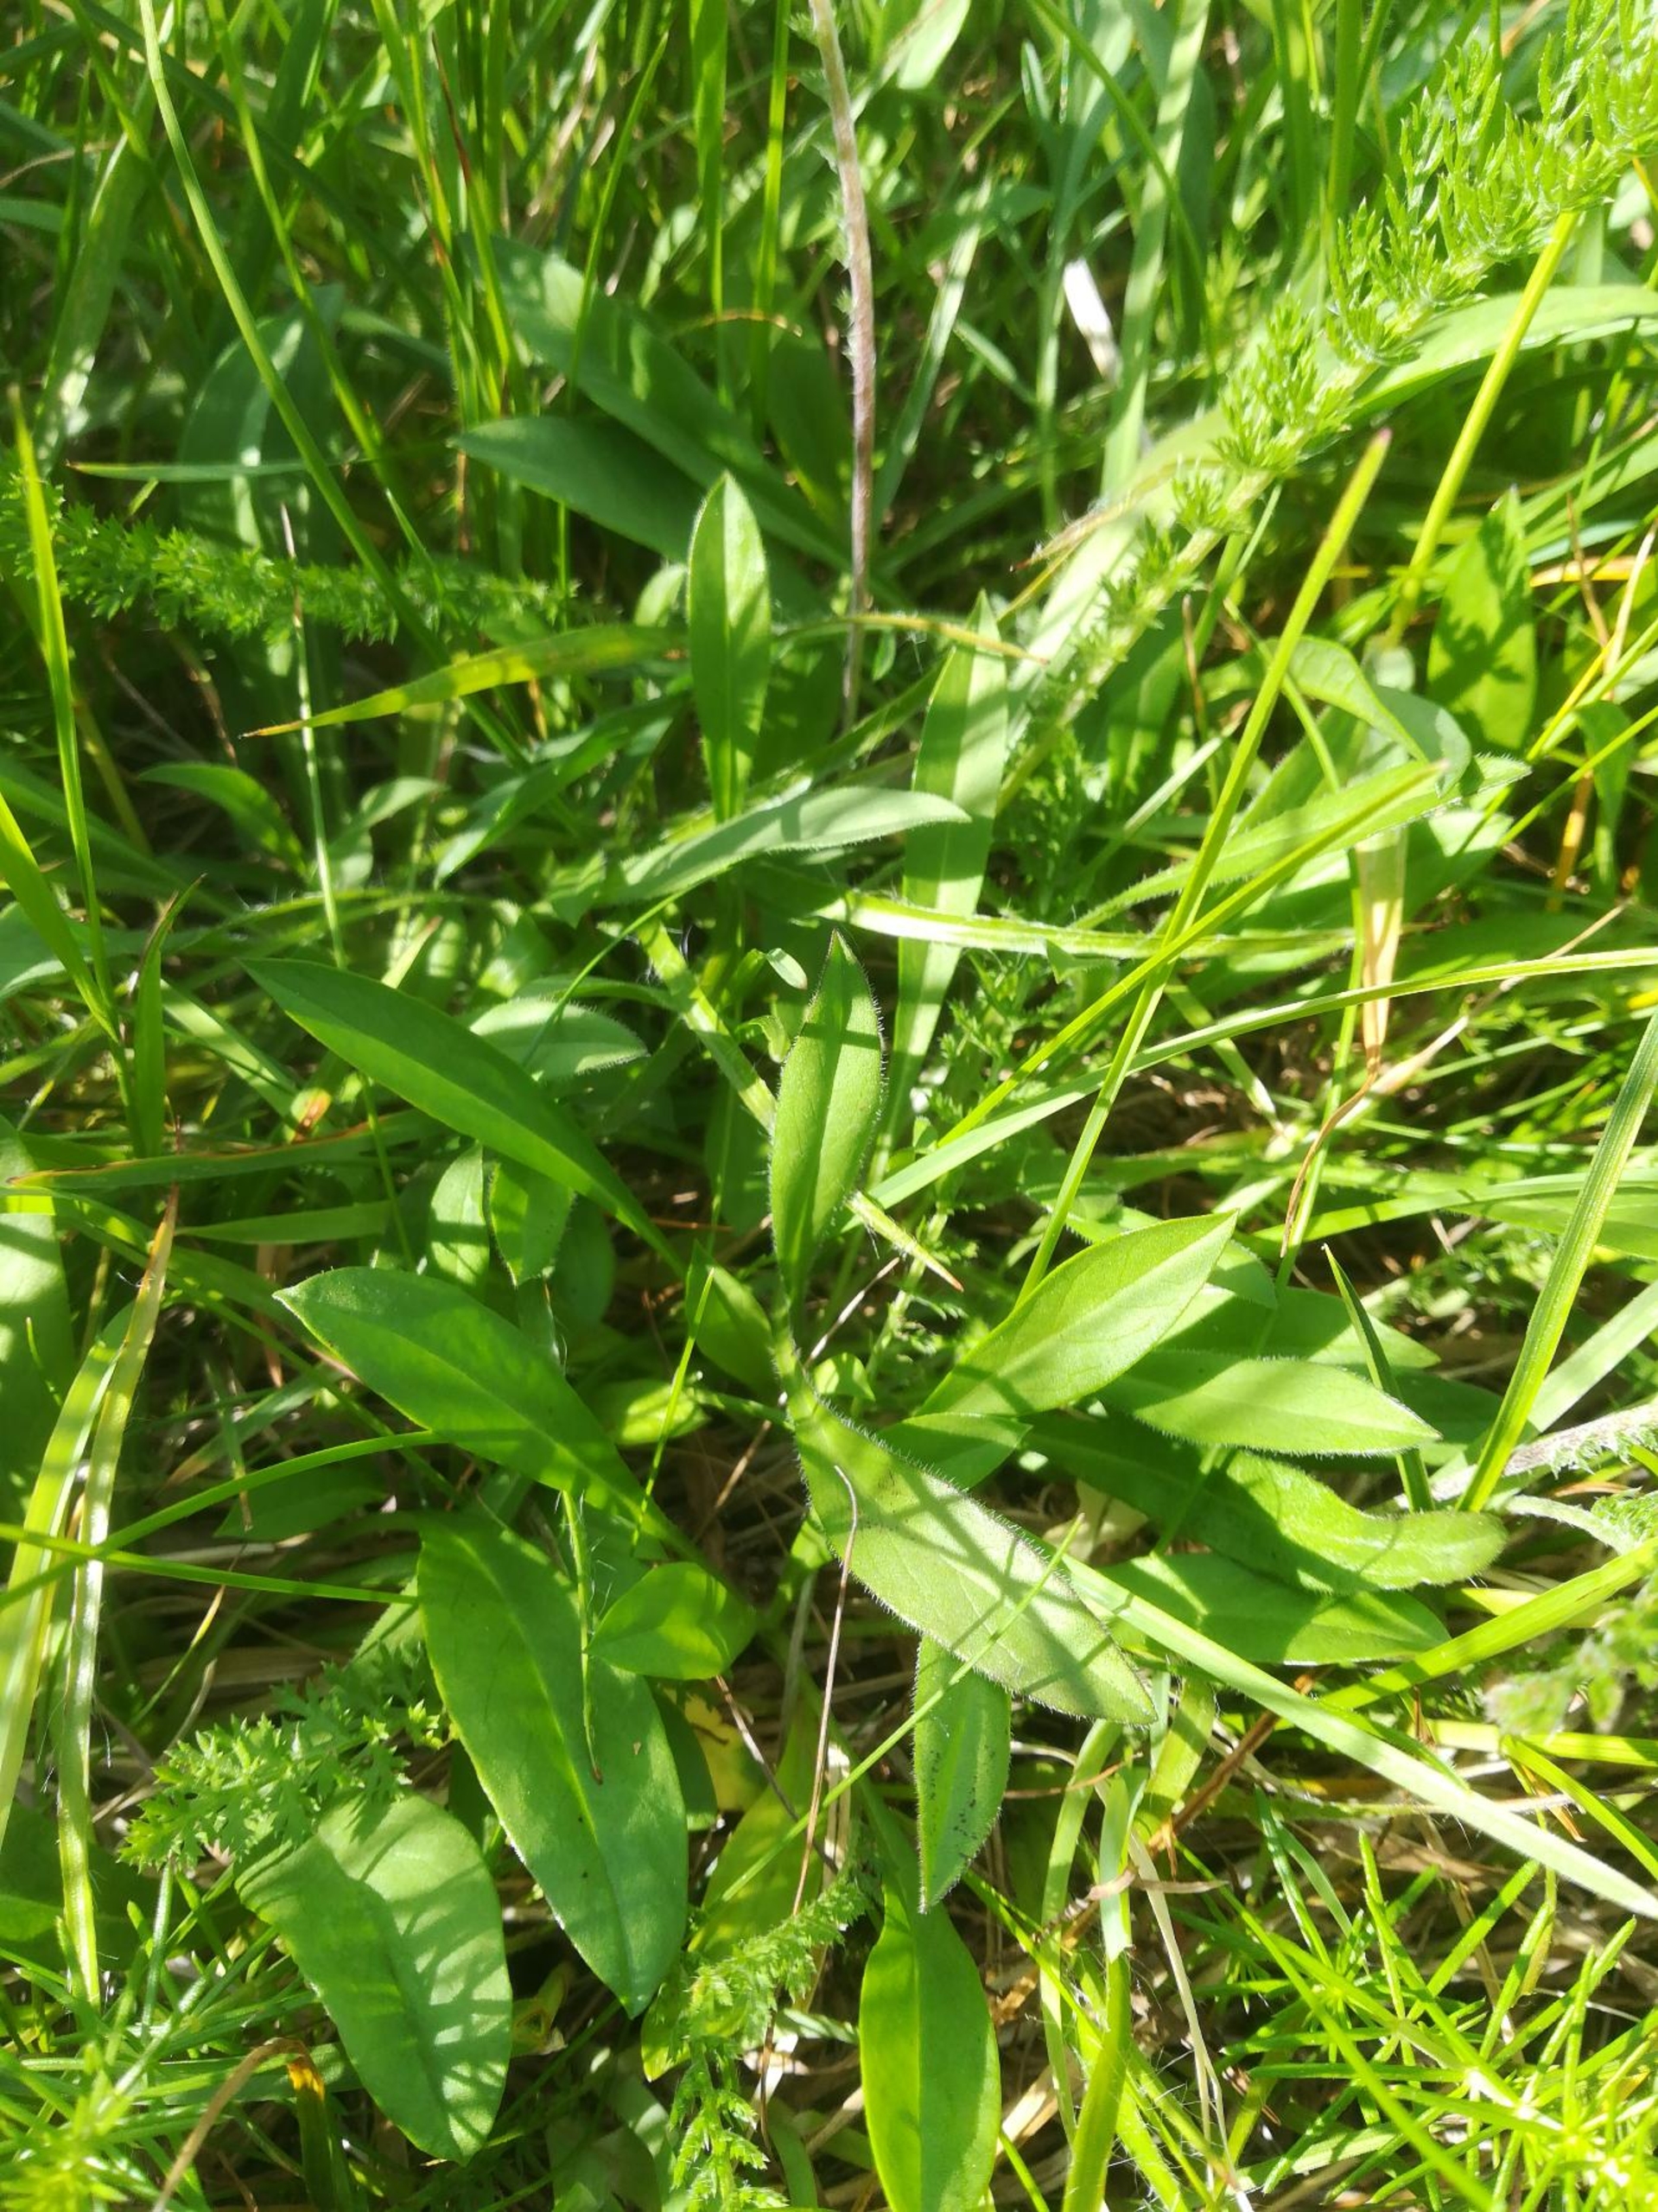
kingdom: Plantae
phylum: Tracheophyta
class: Magnoliopsida
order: Dipsacales
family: Caprifoliaceae
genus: Scabiosa
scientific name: Scabiosa canescens
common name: Vellugtende skabiose
